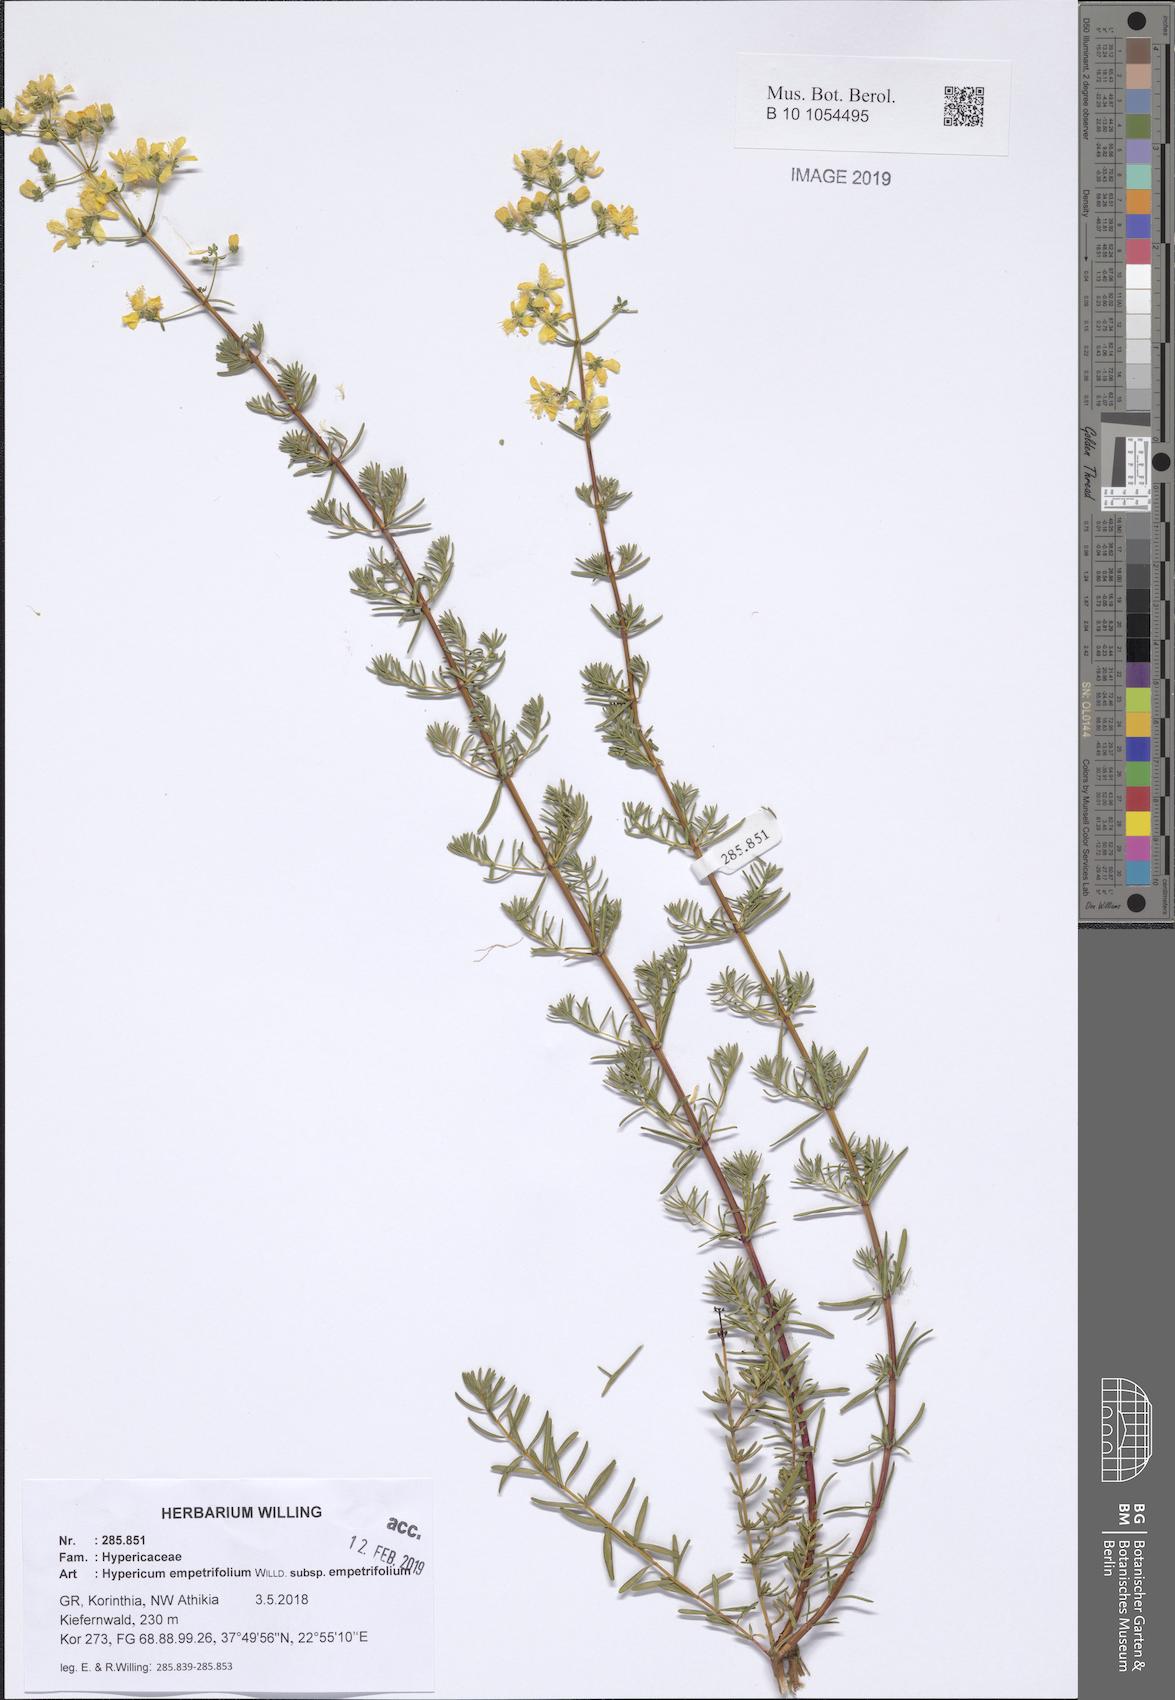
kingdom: Plantae
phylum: Tracheophyta
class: Magnoliopsida
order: Malpighiales
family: Hypericaceae
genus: Hypericum
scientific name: Hypericum empetrifolium
